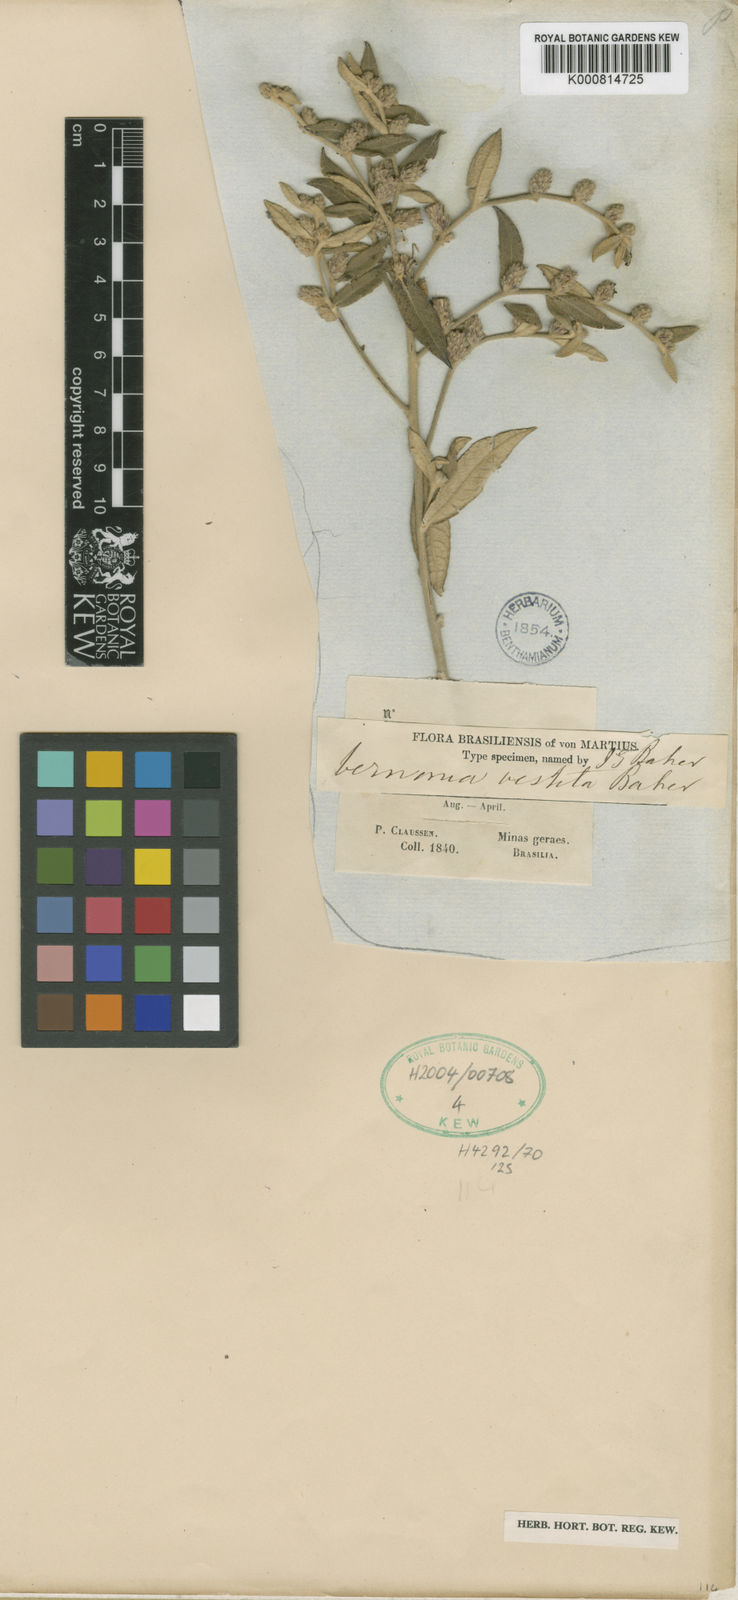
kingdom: Plantae
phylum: Tracheophyta
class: Magnoliopsida
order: Asterales
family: Asteraceae
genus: Lessingianthus
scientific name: Lessingianthus vestitus
